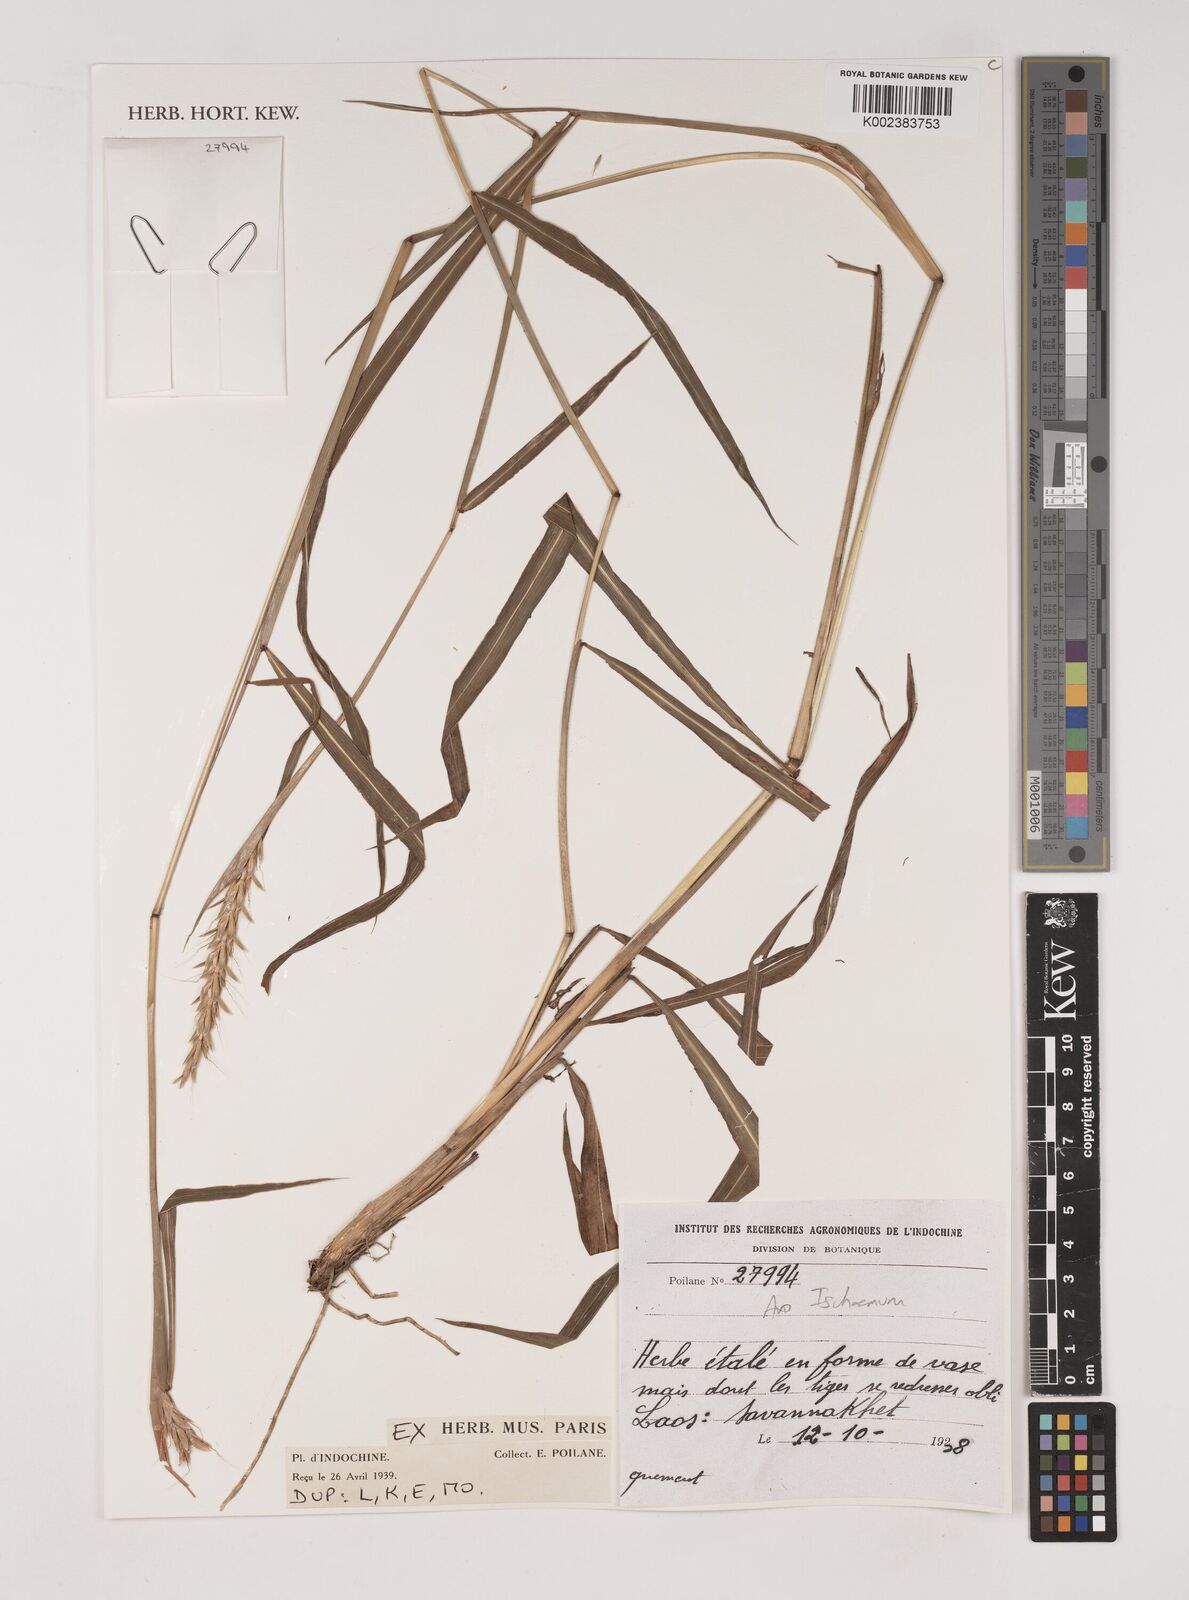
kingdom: Plantae
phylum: Tracheophyta
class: Liliopsida
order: Poales
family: Poaceae
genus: Ischaemum
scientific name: Ischaemum
